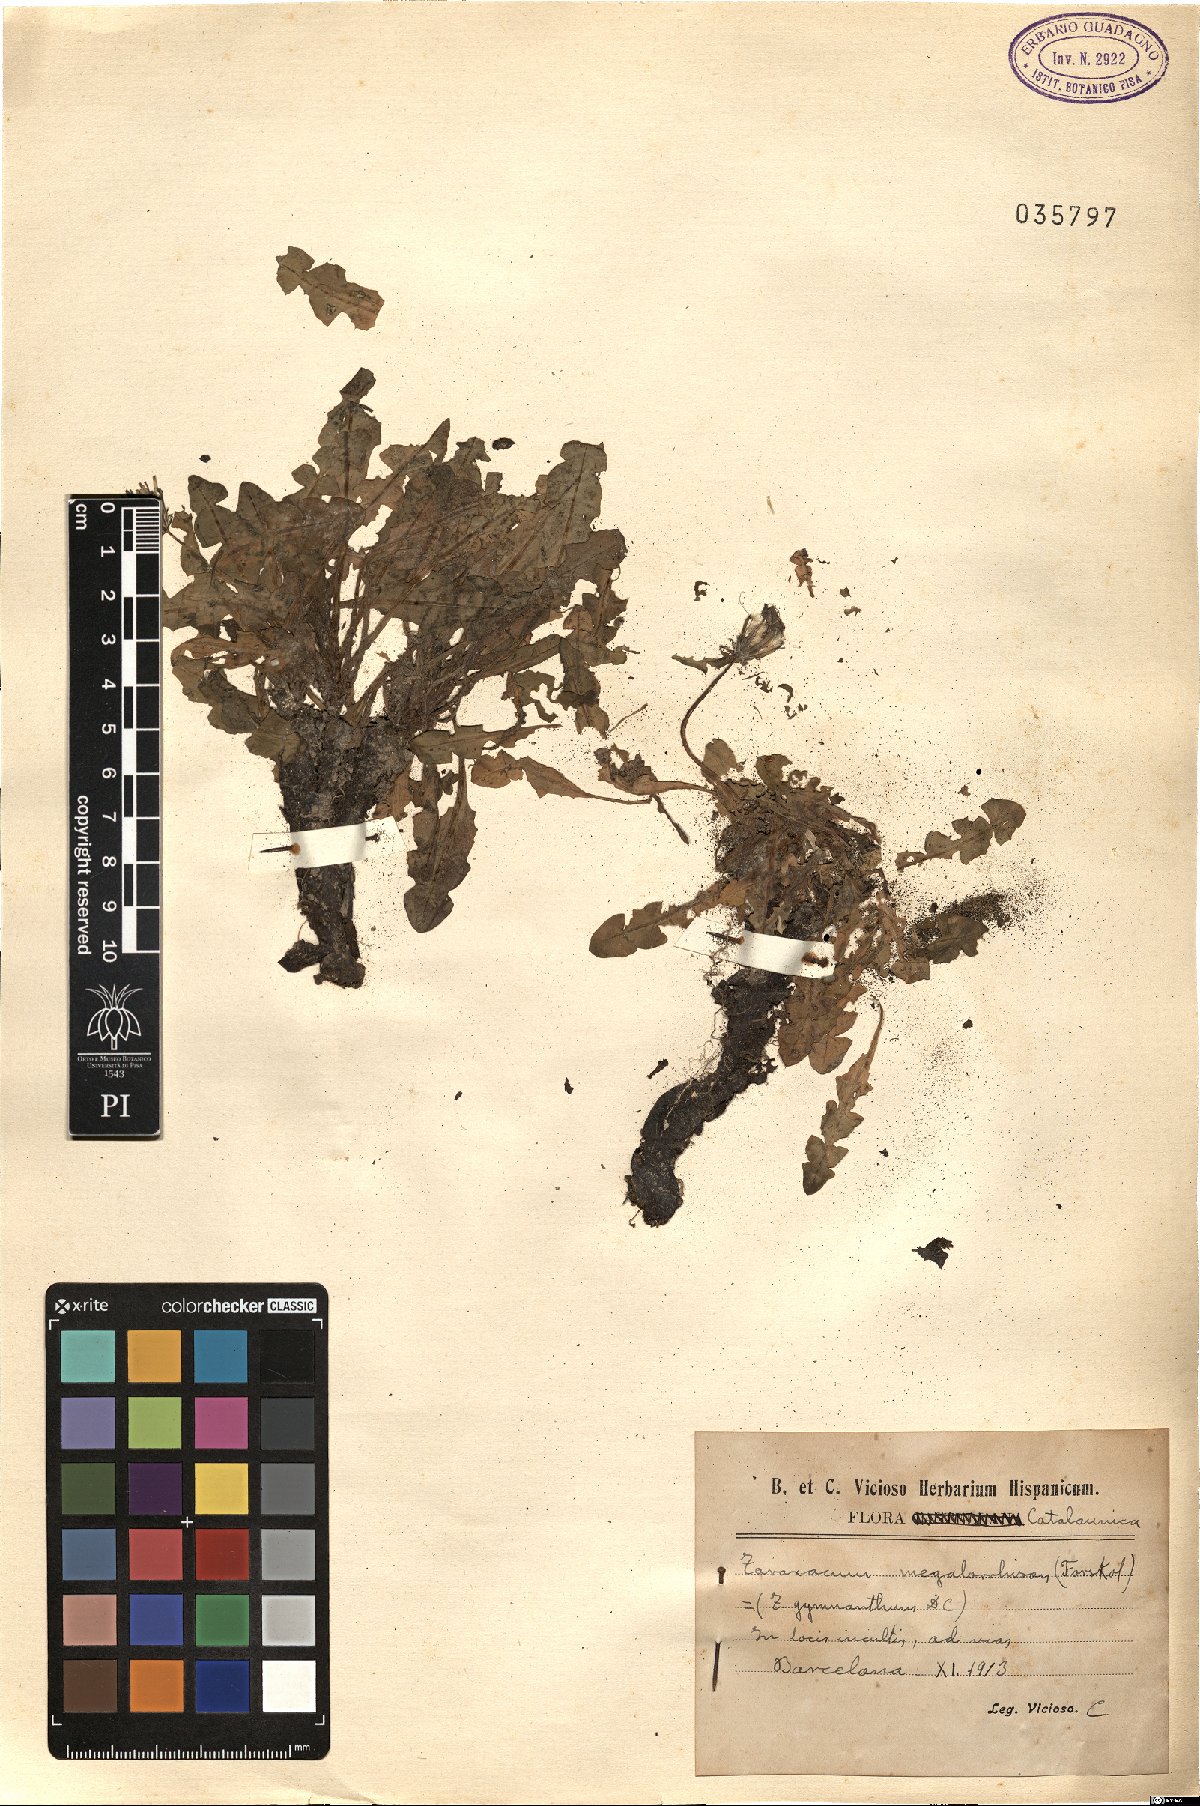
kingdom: Plantae
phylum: Tracheophyta
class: Magnoliopsida
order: Asterales
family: Asteraceae
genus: Taraxacum
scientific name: Taraxacum megalorhizon
